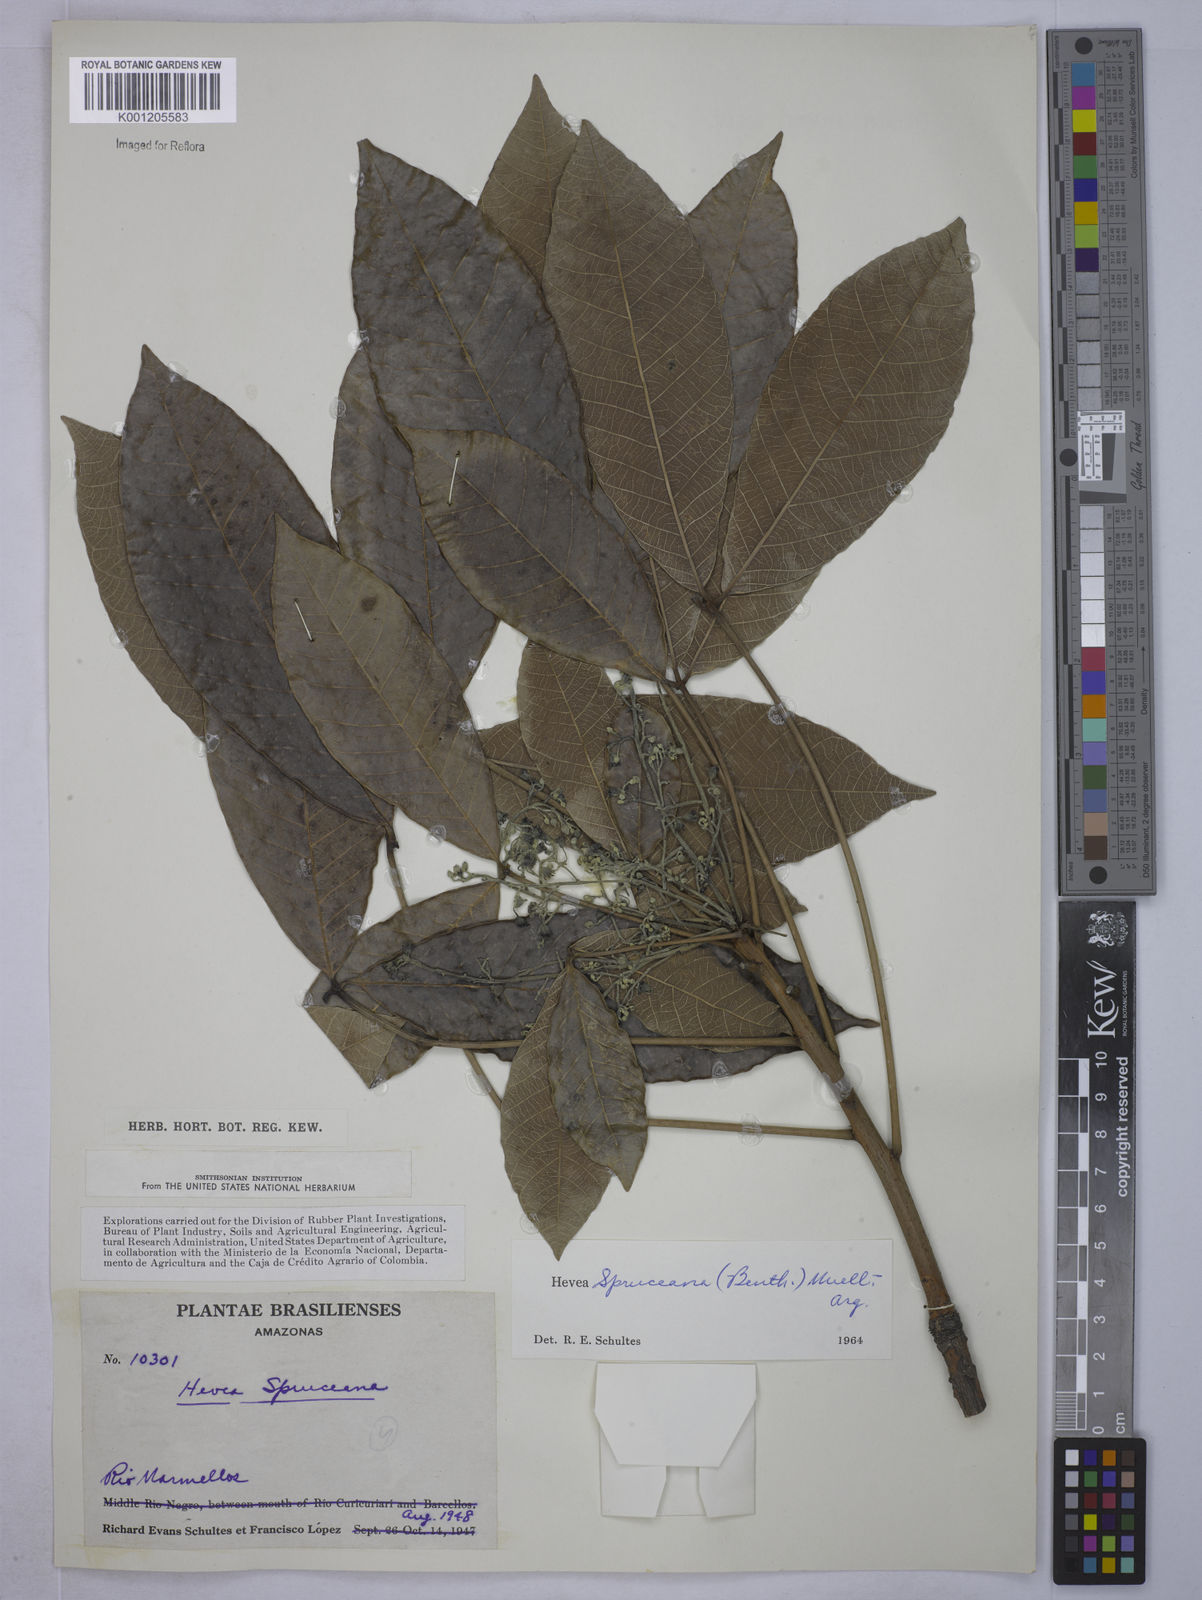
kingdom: Plantae
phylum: Tracheophyta
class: Magnoliopsida
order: Malpighiales
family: Euphorbiaceae
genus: Hevea
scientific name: Hevea
